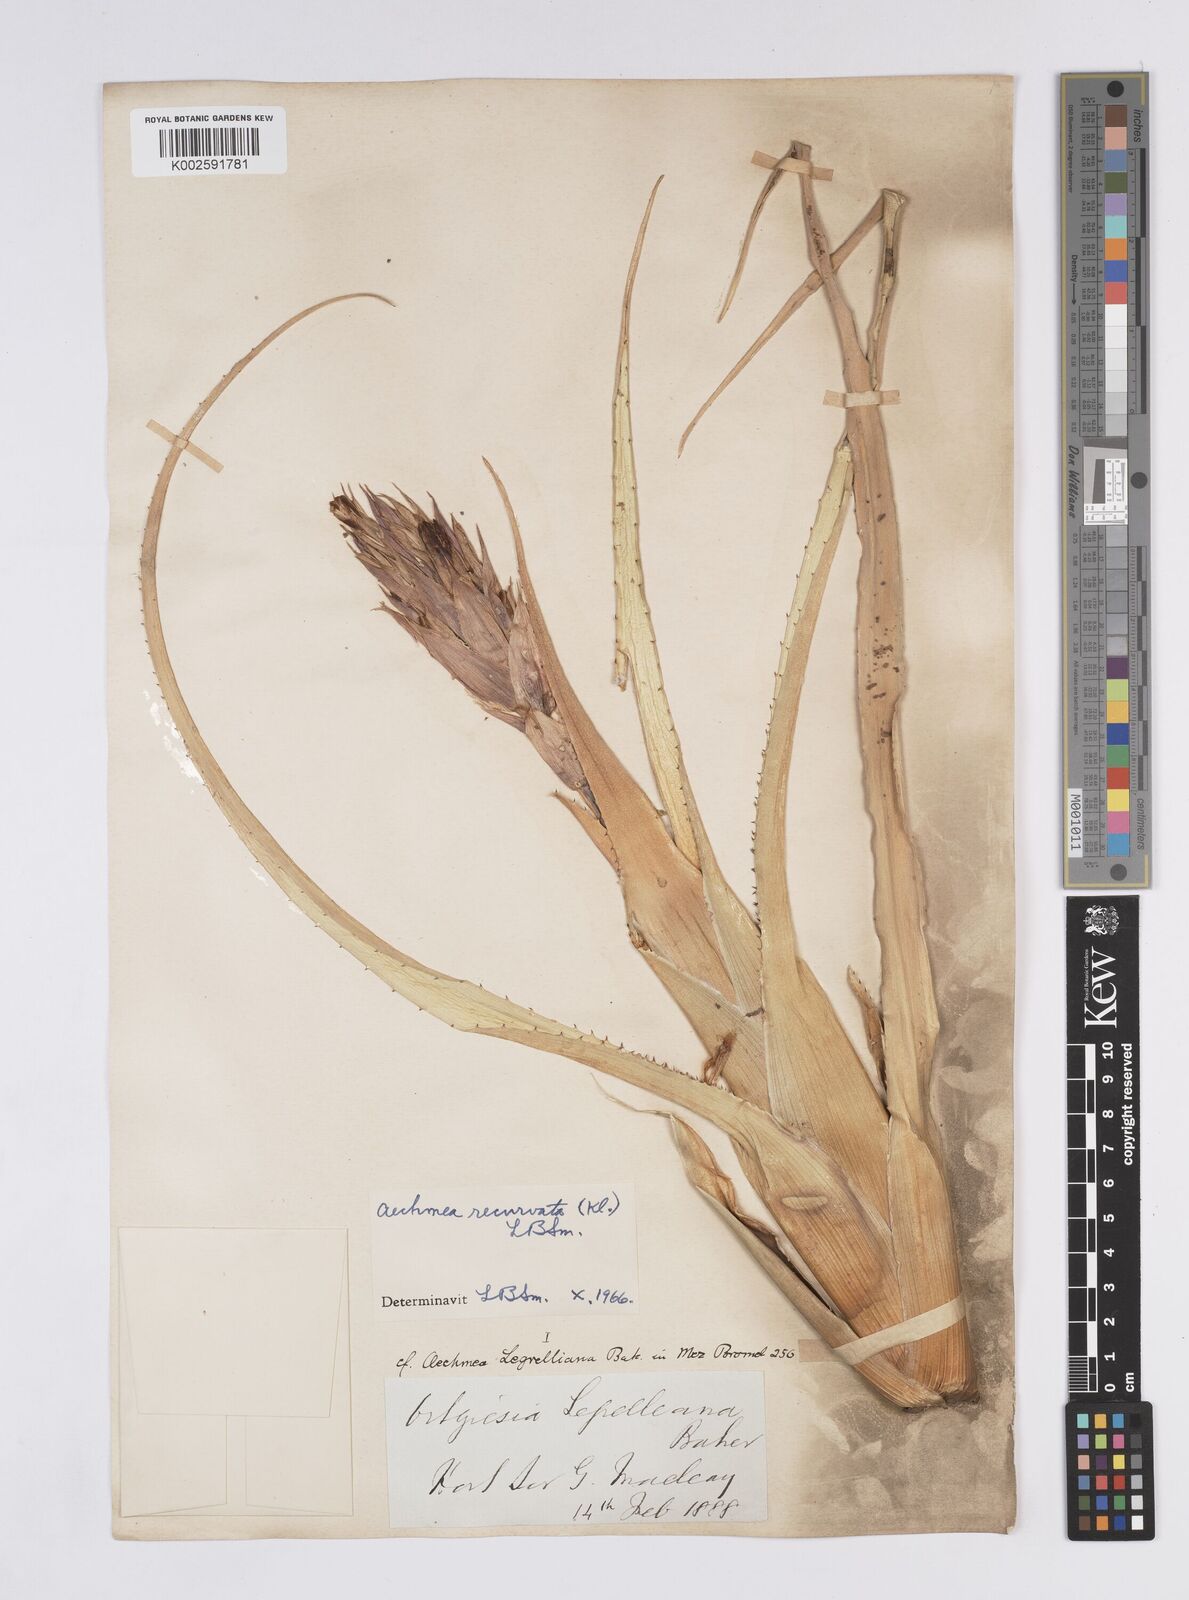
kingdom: Plantae
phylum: Tracheophyta
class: Liliopsida
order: Poales
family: Bromeliaceae
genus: Aechmea
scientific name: Aechmea recurvata
